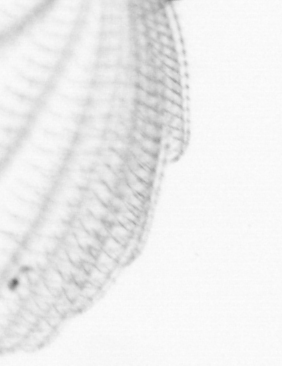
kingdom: Animalia
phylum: Chordata
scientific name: Chordata
